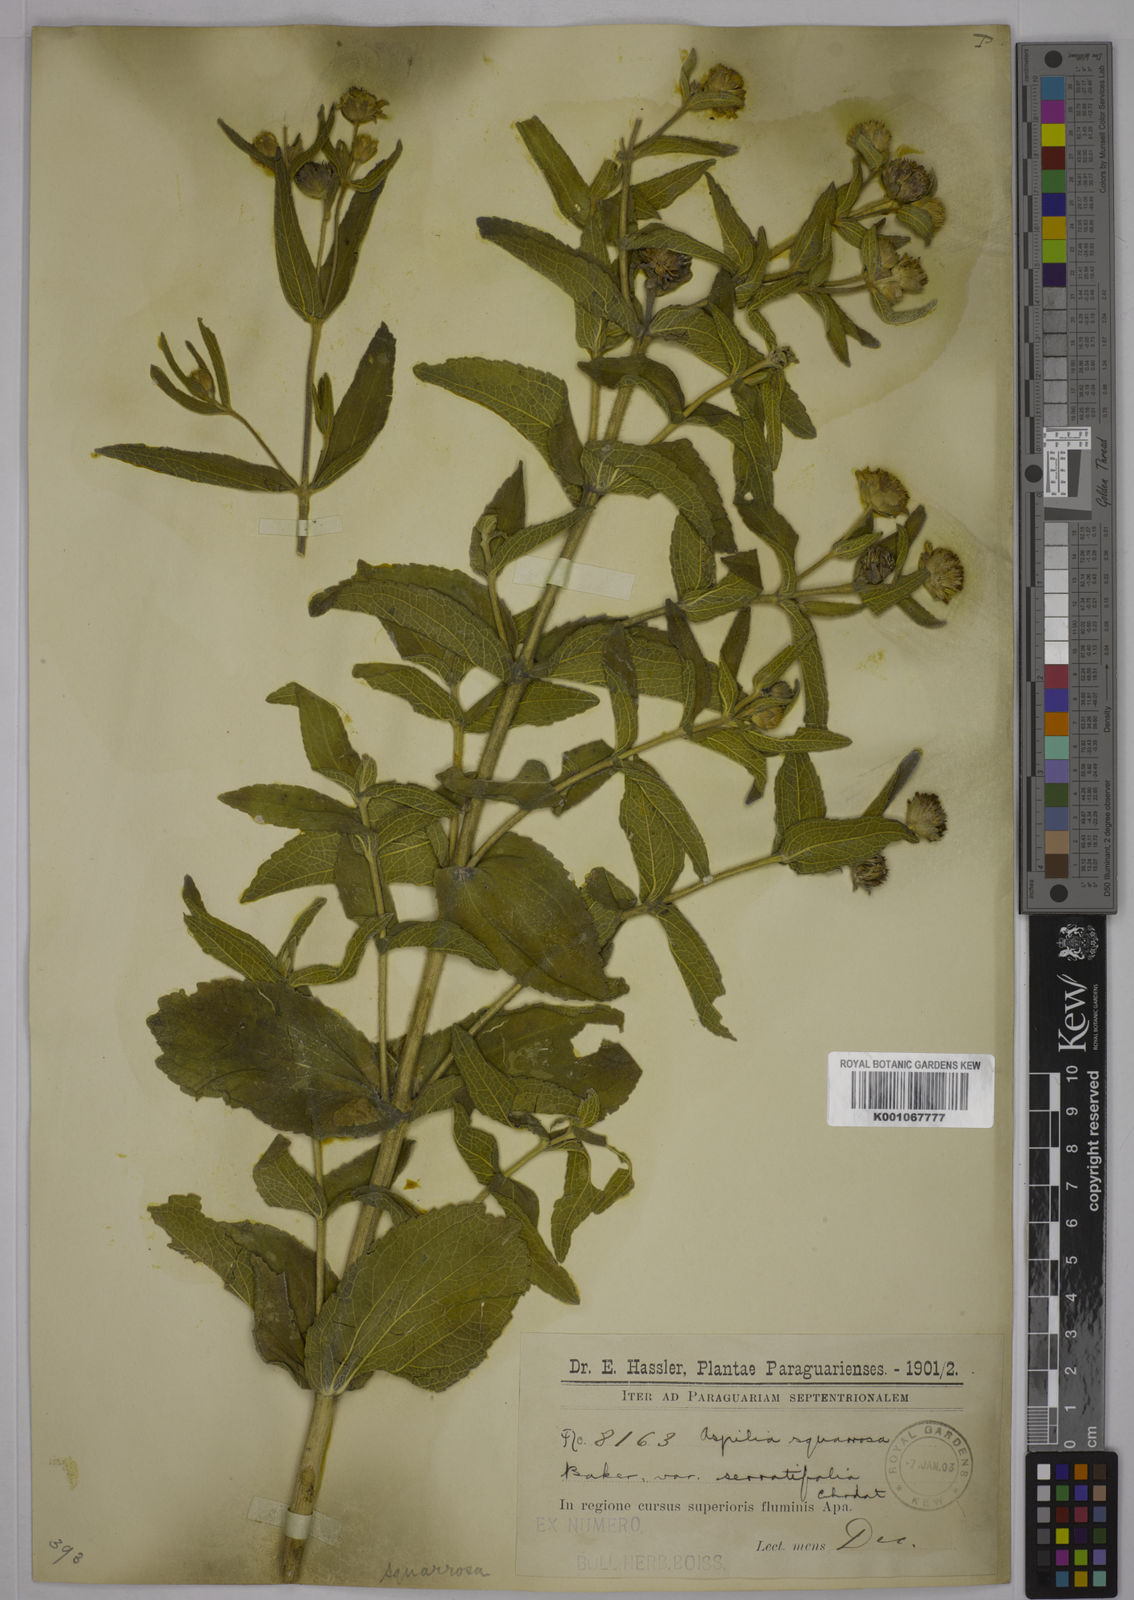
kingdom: Plantae
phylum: Tracheophyta
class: Magnoliopsida
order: Asterales
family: Asteraceae
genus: Wedelia
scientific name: Wedelia squarrosa
